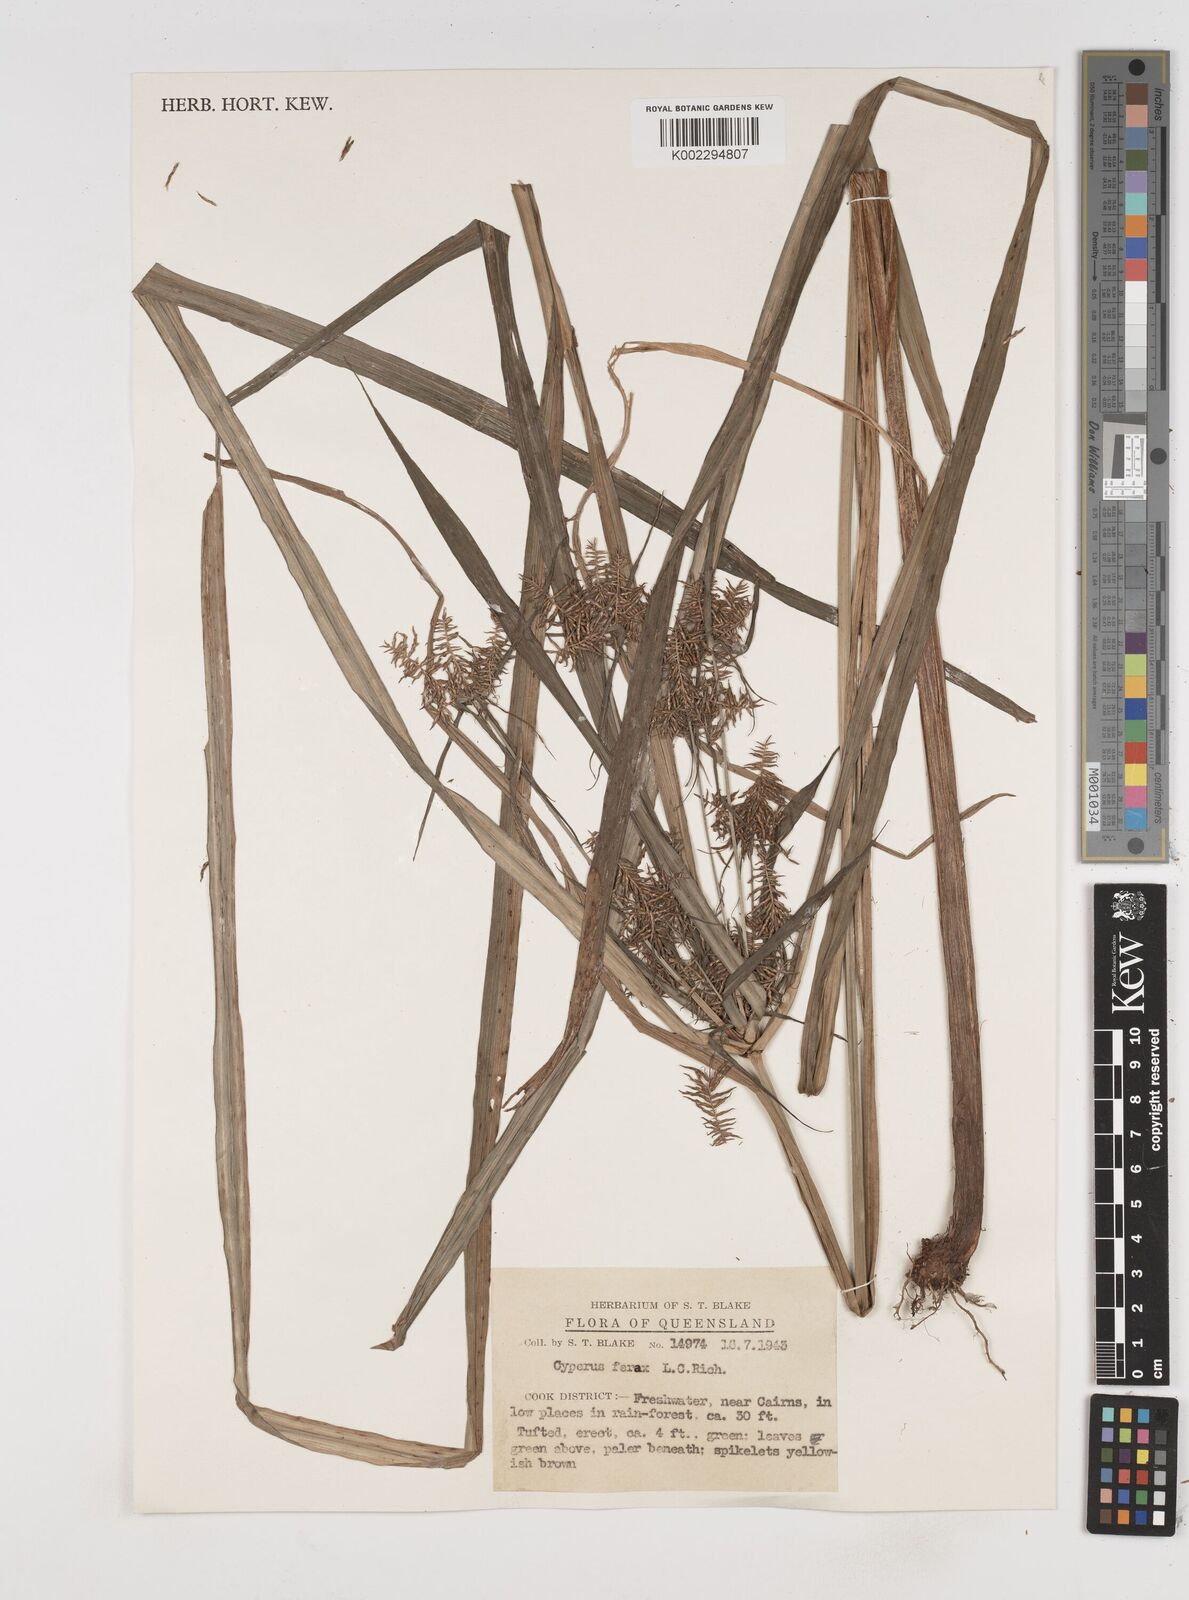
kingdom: Plantae
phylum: Tracheophyta
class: Liliopsida
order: Poales
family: Cyperaceae
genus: Cyperus
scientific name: Cyperus odoratus
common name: Fragrant flatsedge
